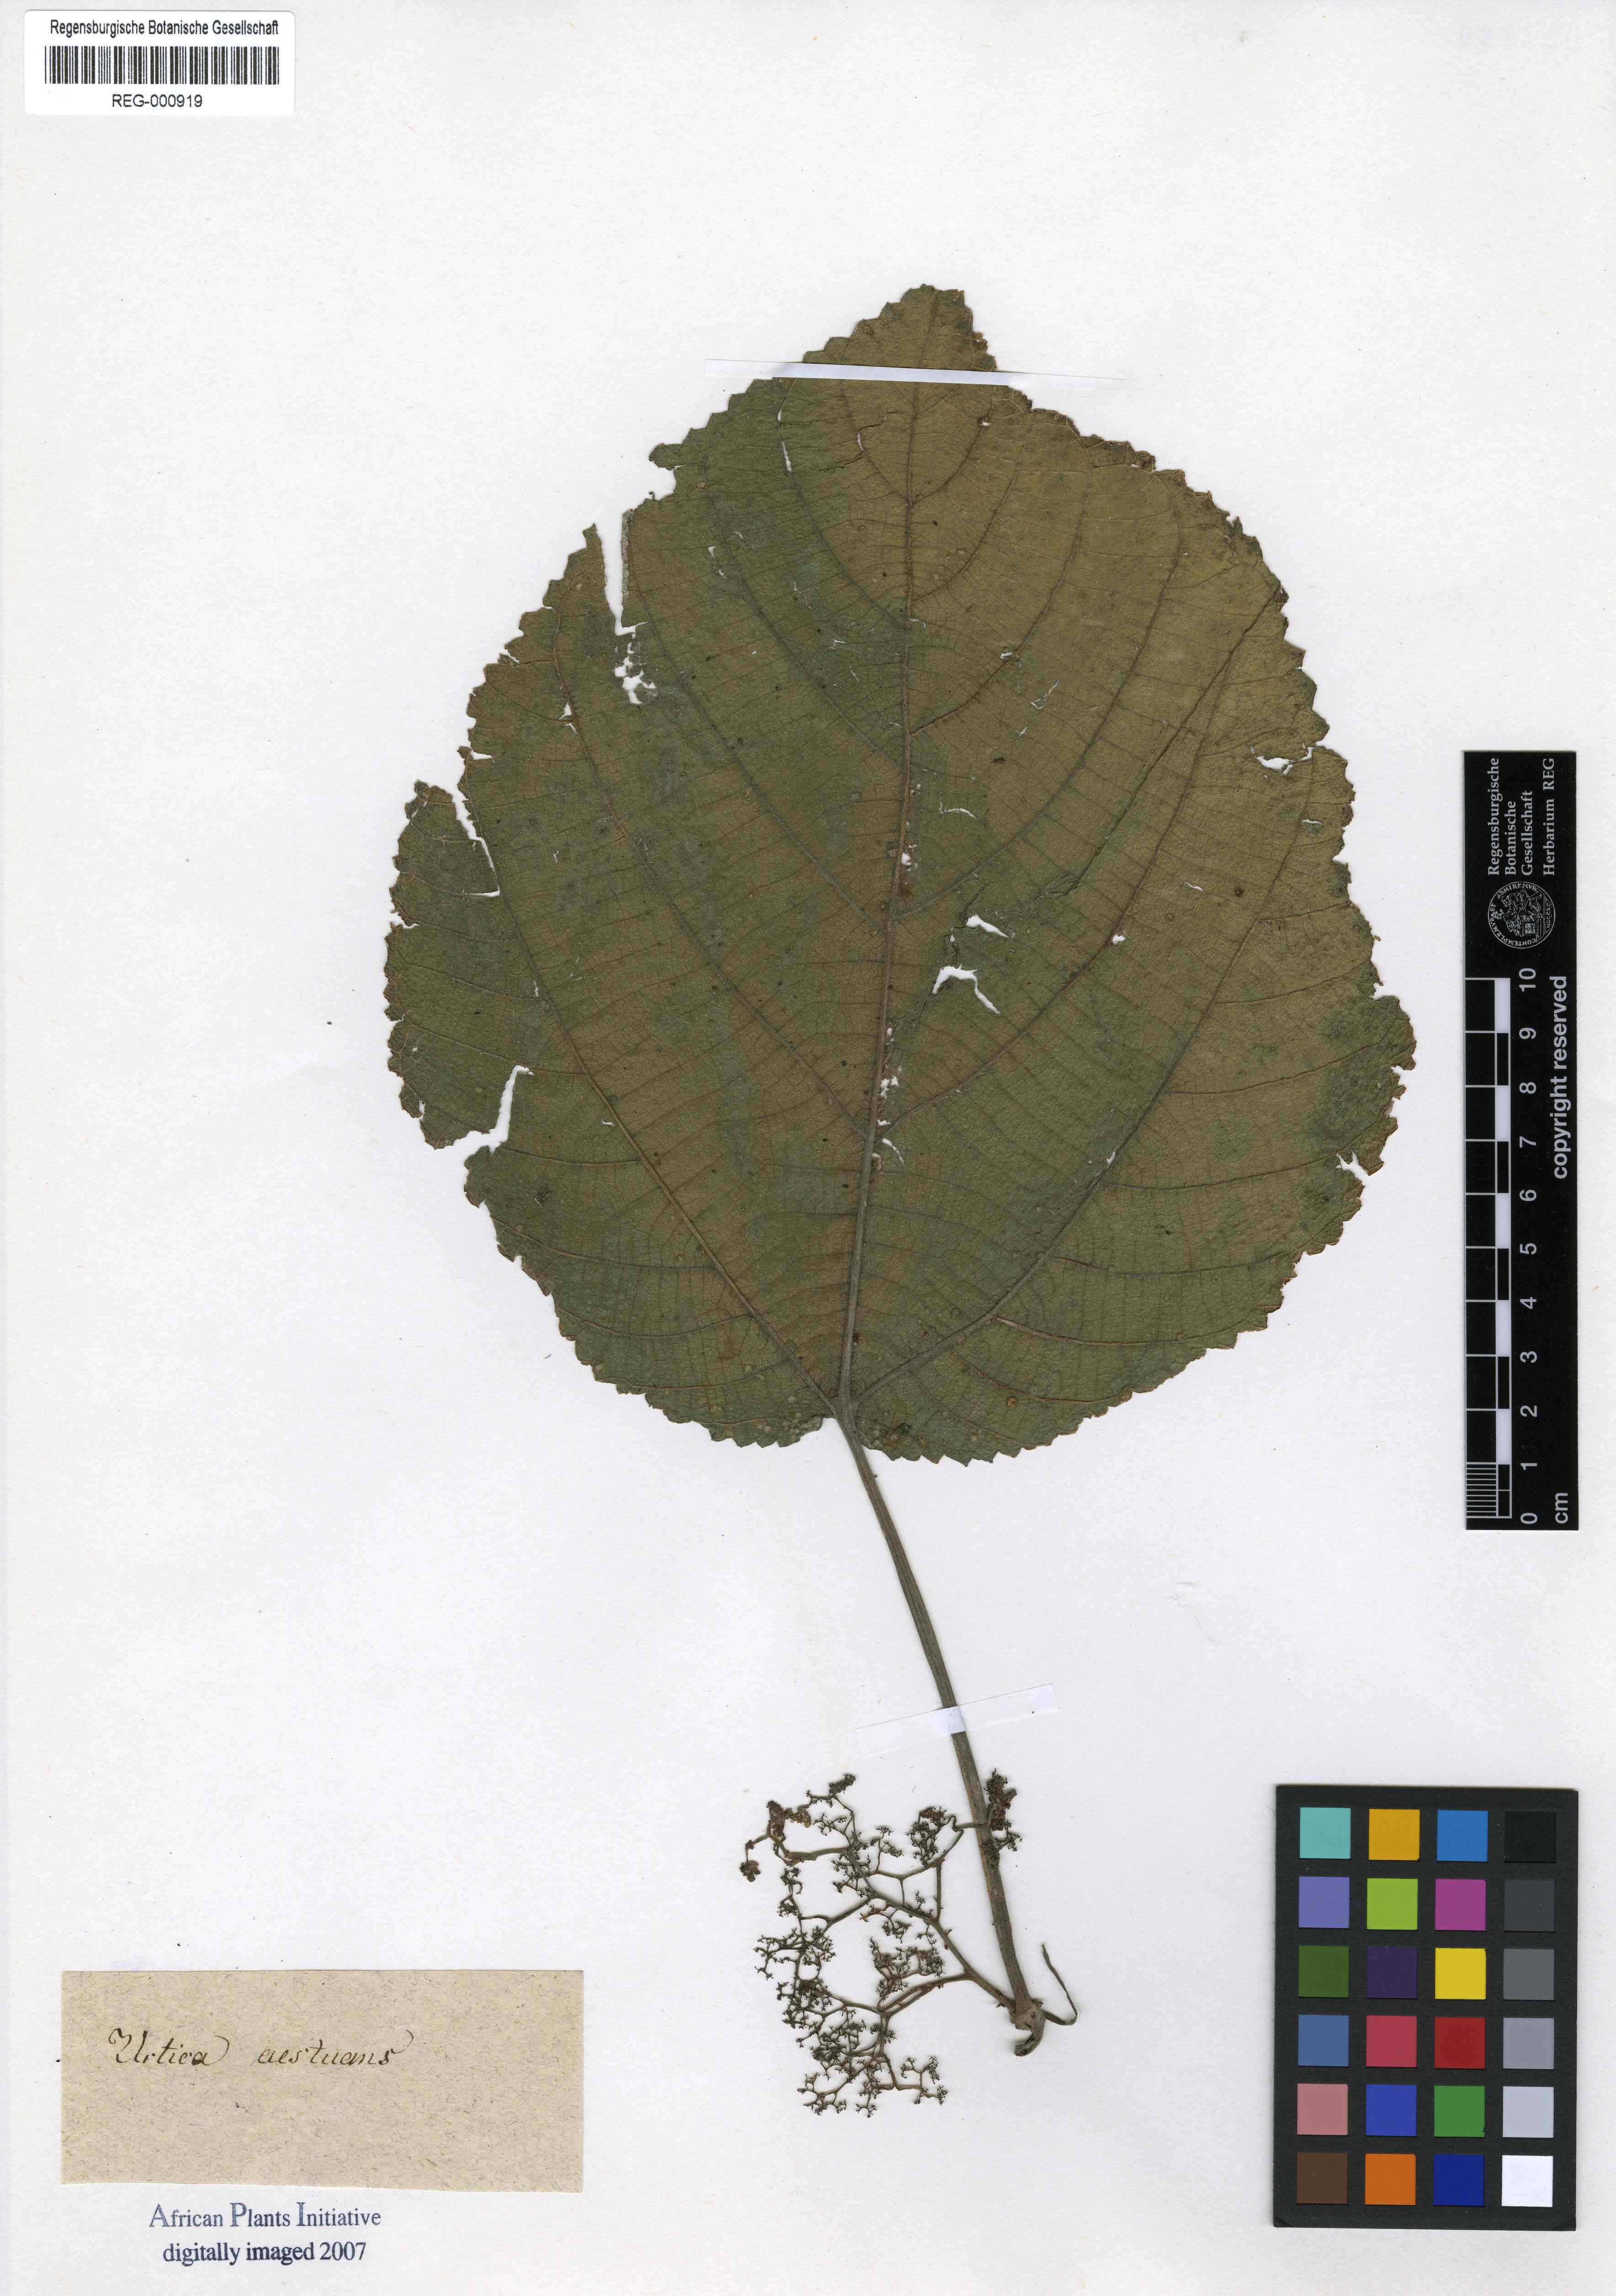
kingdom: Plantae
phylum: Tracheophyta
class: Magnoliopsida
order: Rosales
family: Urticaceae
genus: Urera
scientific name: Urera caracasana
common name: Flameberry
